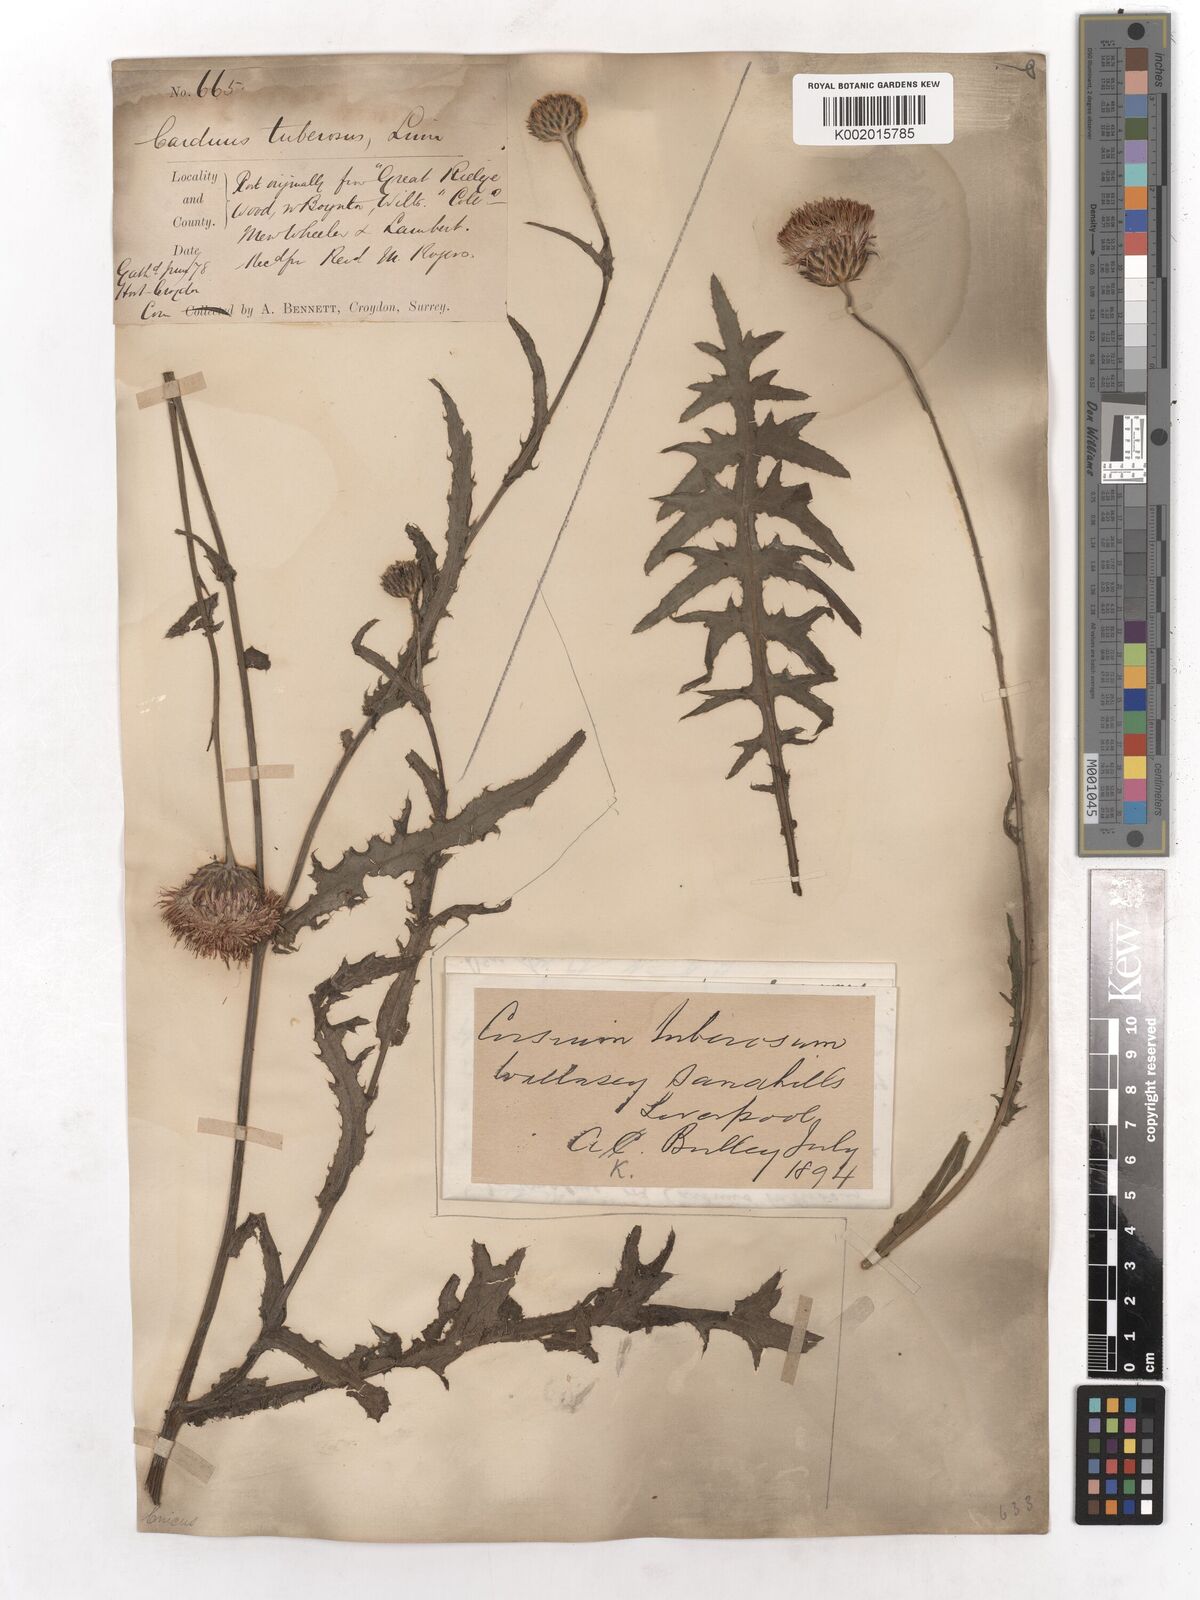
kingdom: Plantae
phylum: Tracheophyta
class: Magnoliopsida
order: Asterales
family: Asteraceae
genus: Cirsium
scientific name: Cirsium tuberosum
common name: Tuberous thistle
